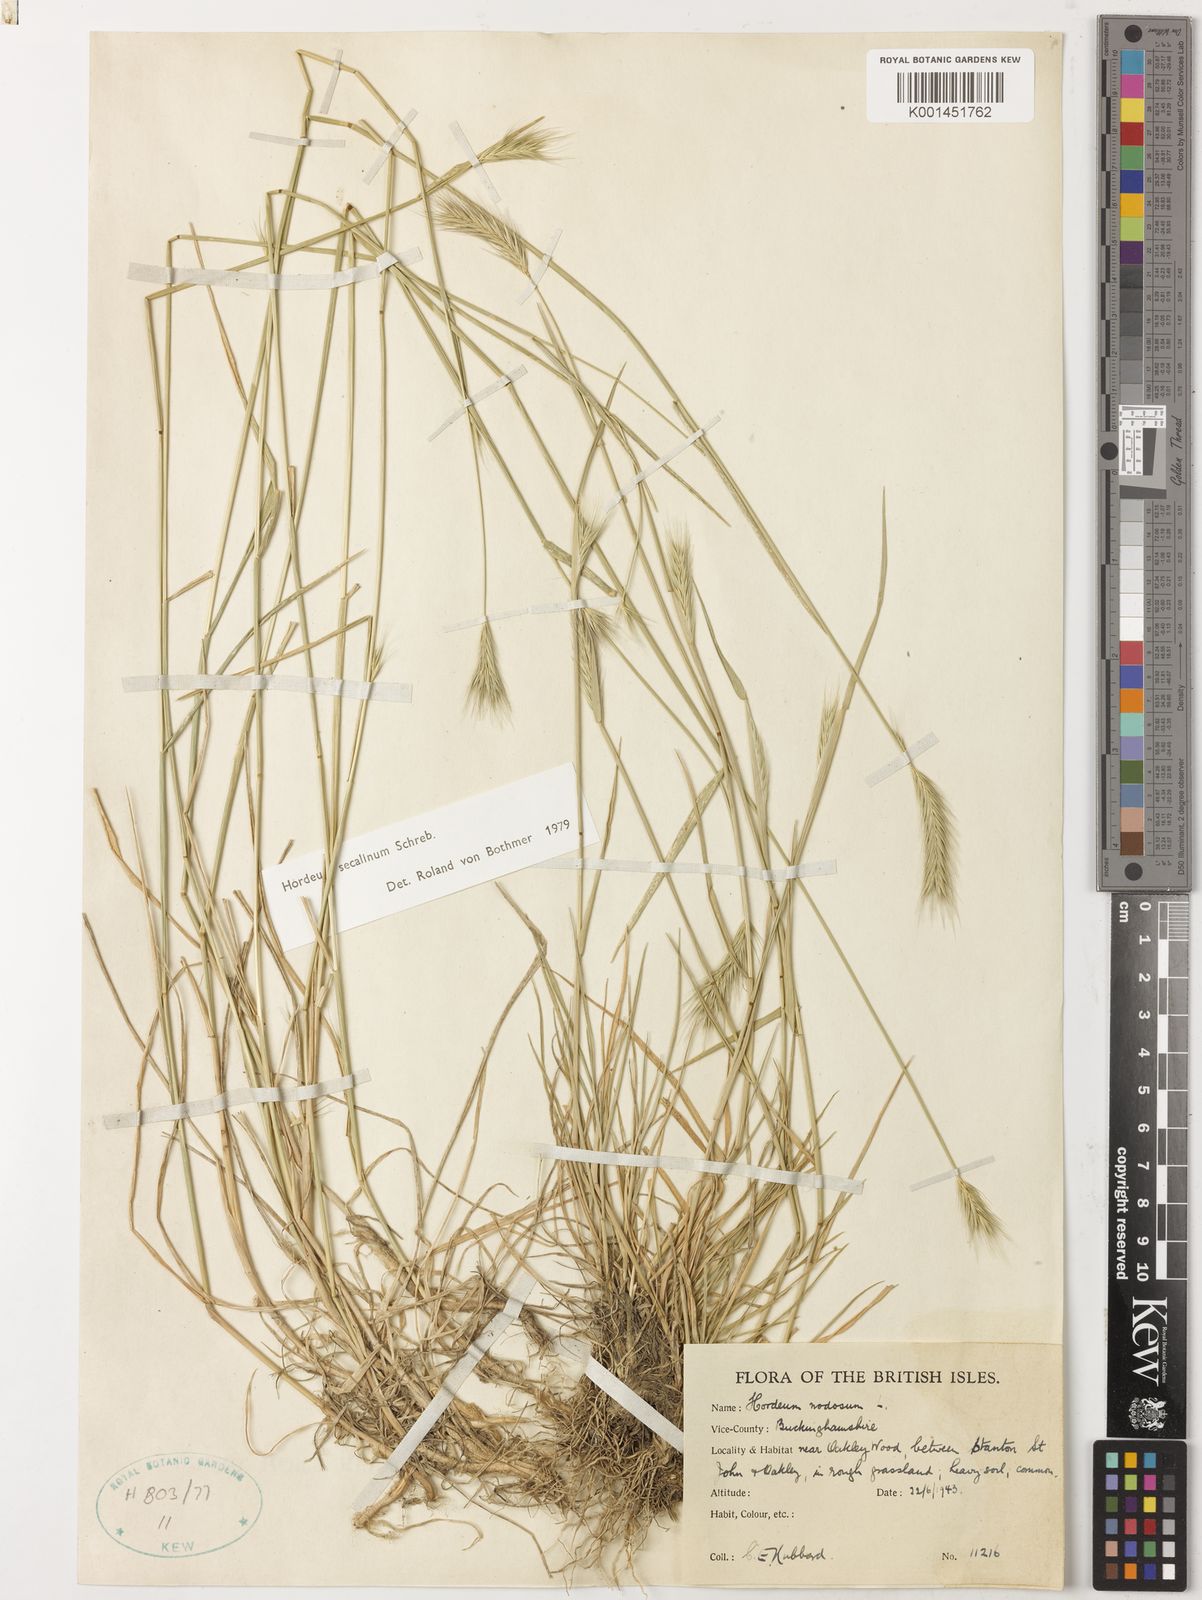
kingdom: Plantae
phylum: Tracheophyta
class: Liliopsida
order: Poales
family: Poaceae
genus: Hordeum
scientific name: Hordeum secalinum
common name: Meadow barley
